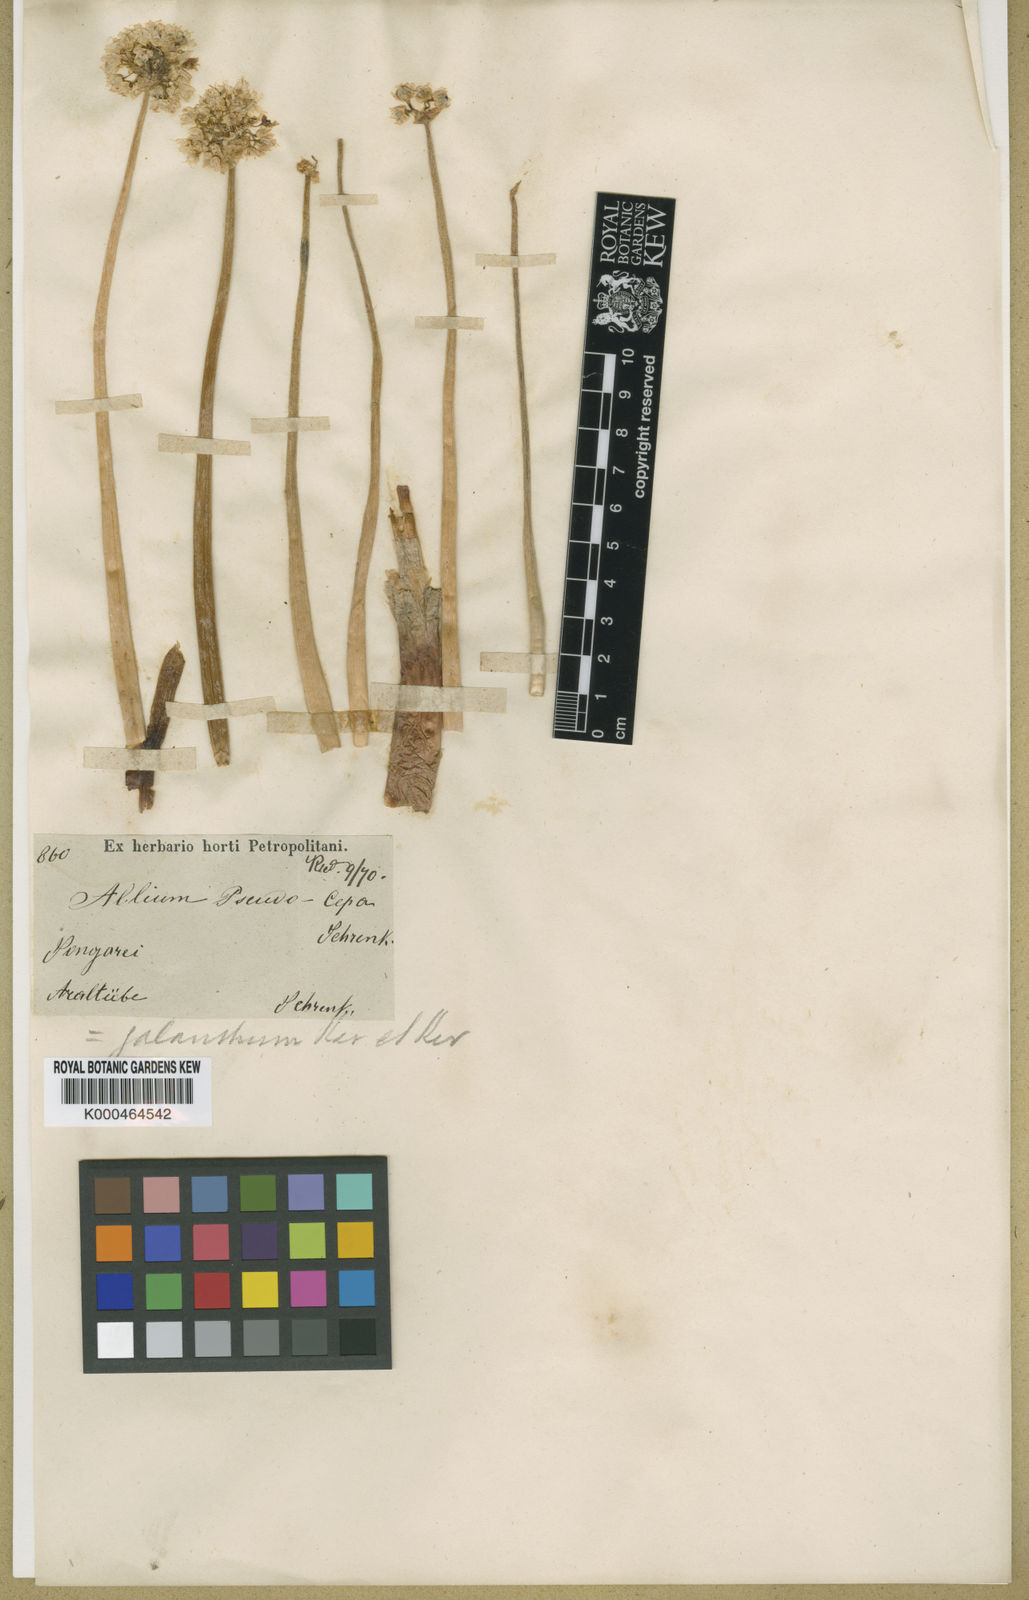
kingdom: Plantae
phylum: Tracheophyta
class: Liliopsida
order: Asparagales
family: Amaryllidaceae
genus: Allium
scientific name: Allium galanthum
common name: Snowdrop onion
